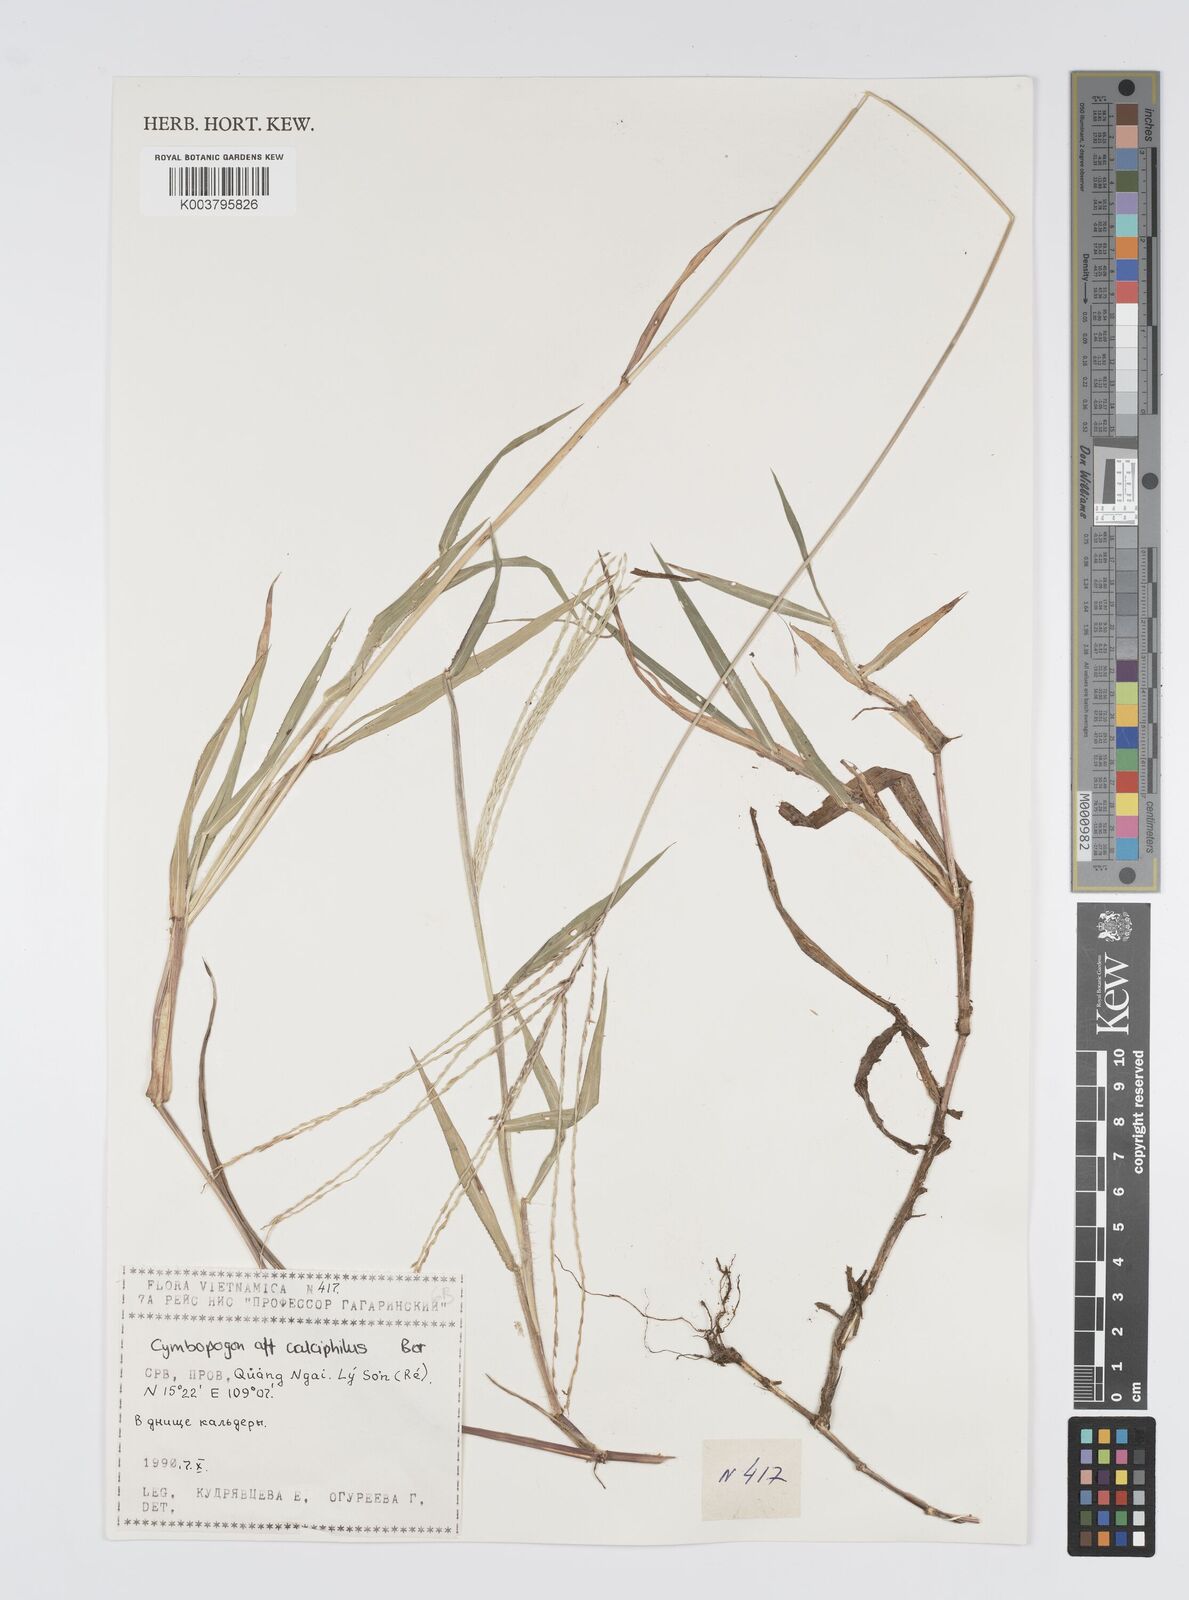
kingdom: Plantae
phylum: Tracheophyta
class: Liliopsida
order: Poales
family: Poaceae
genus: Digitaria
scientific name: Digitaria ciliaris
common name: Tropical finger-grass
